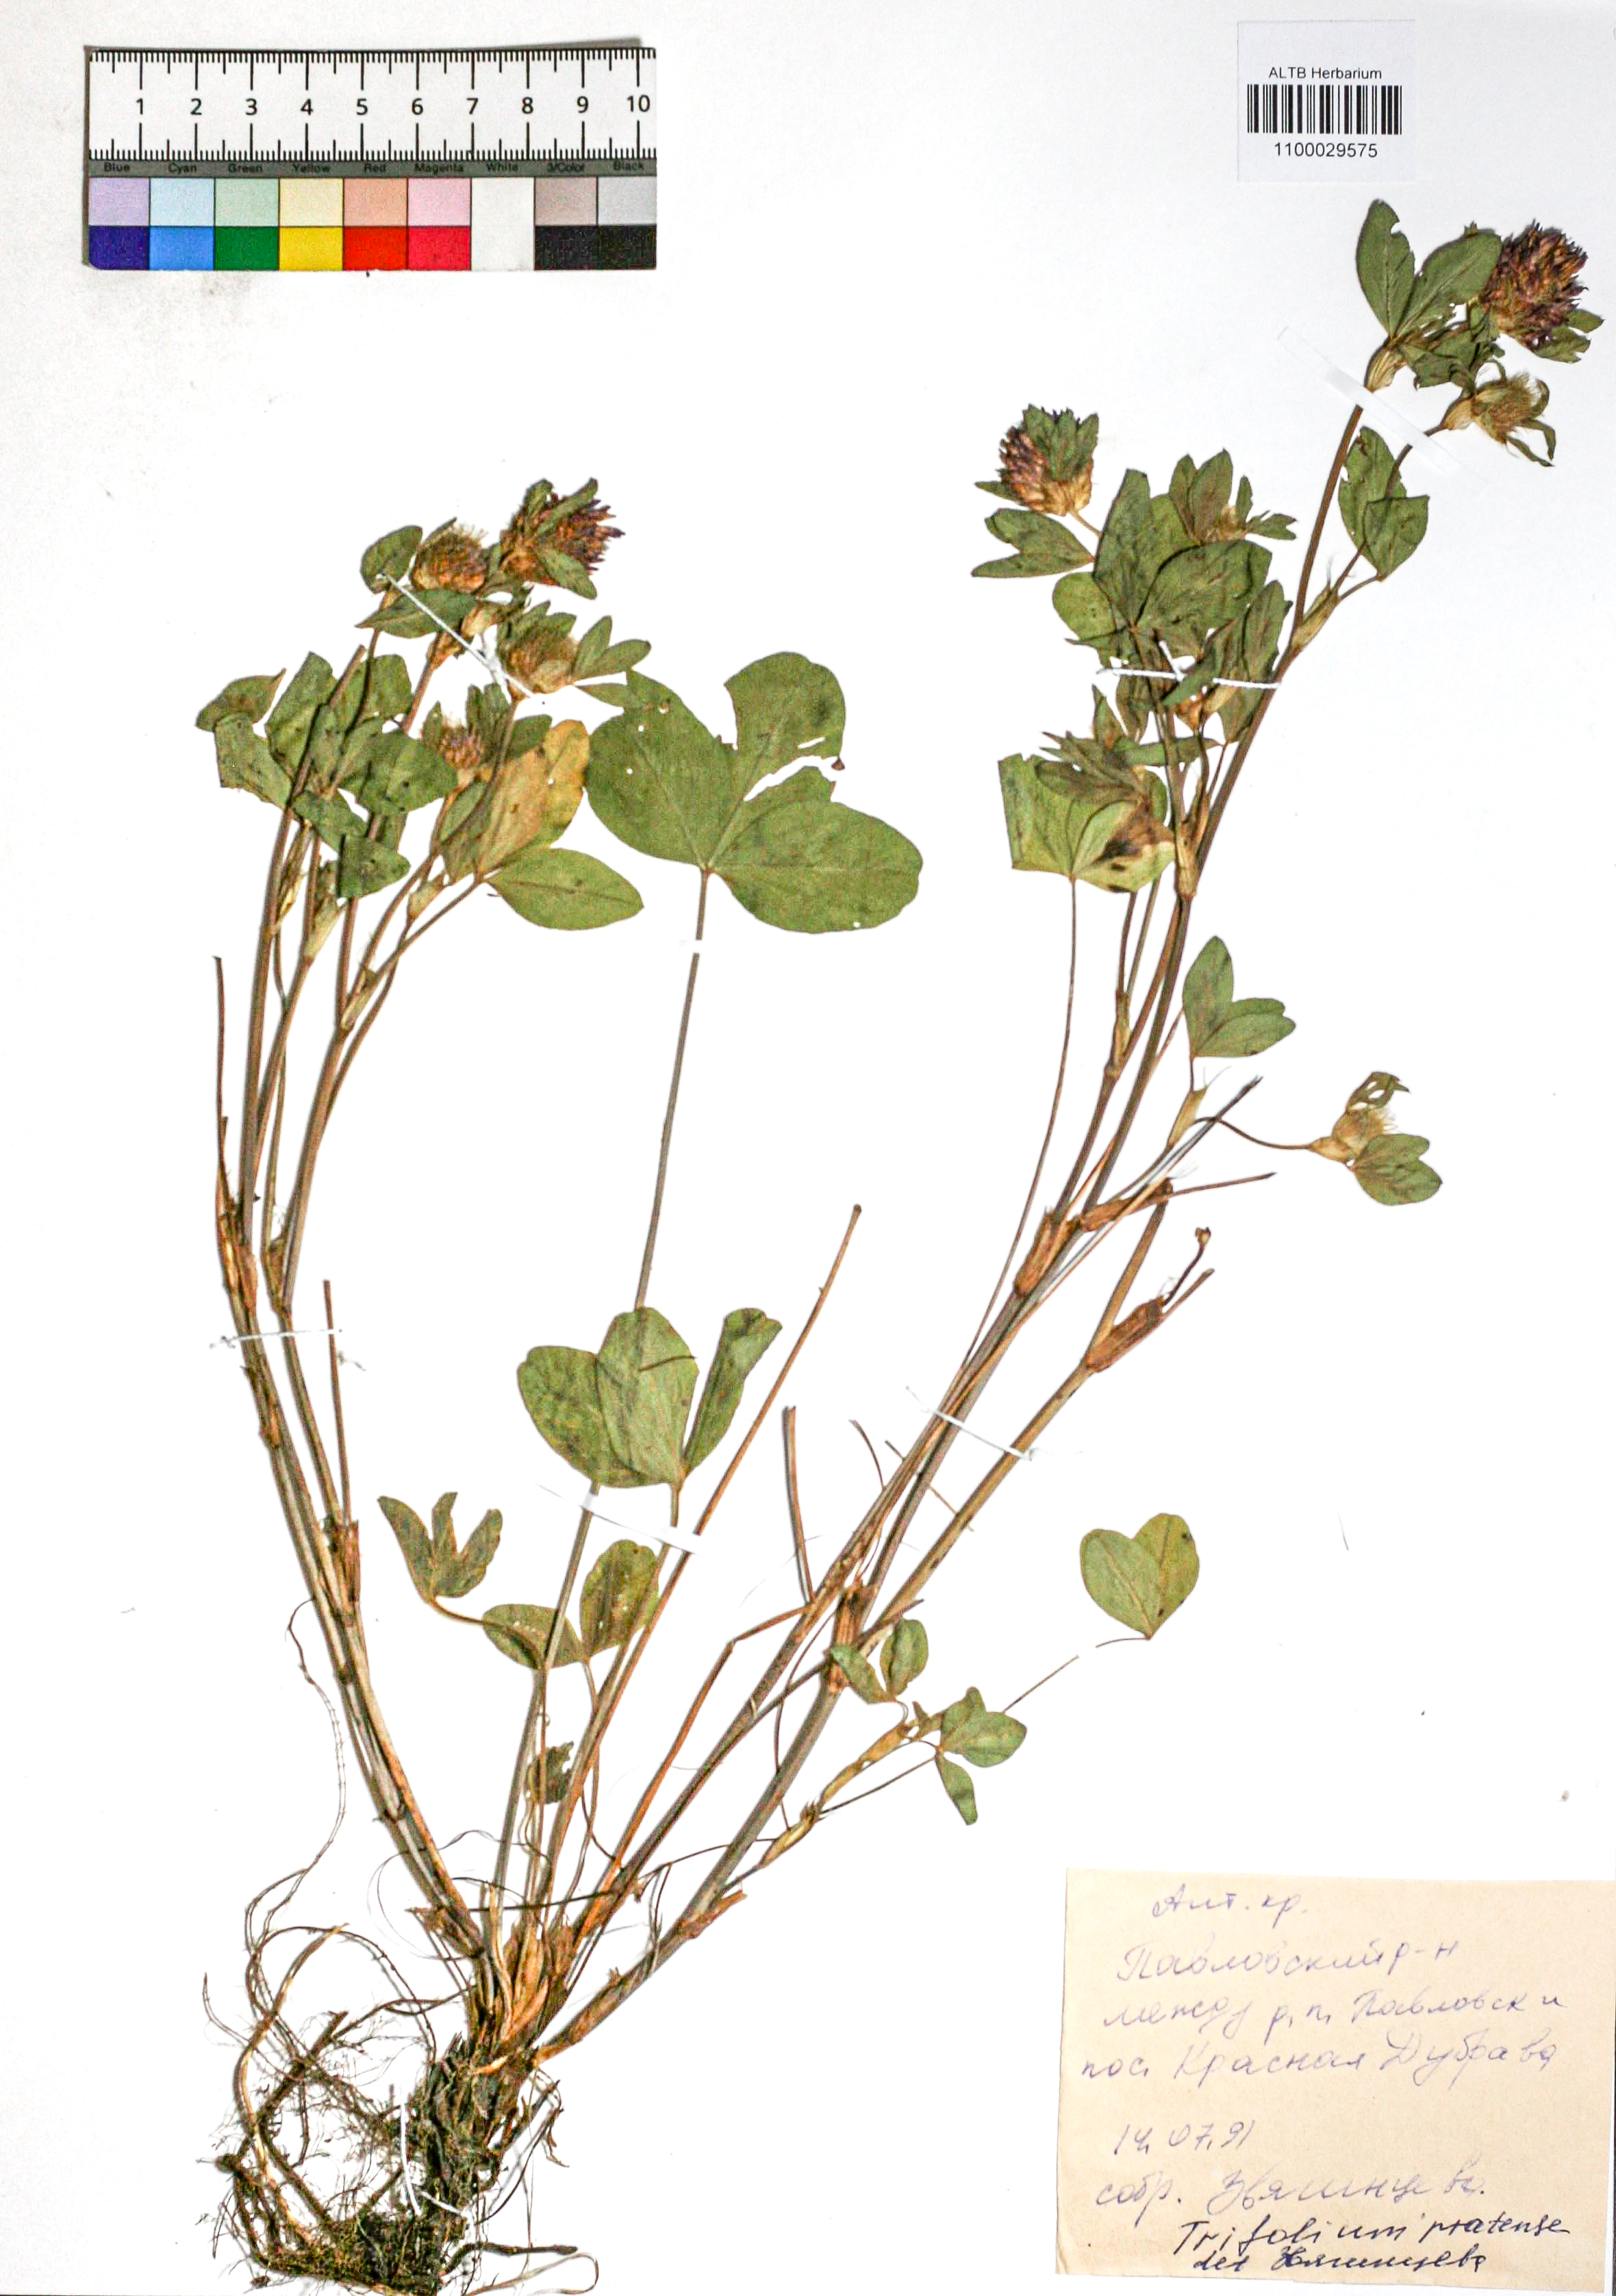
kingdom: Plantae
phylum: Tracheophyta
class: Magnoliopsida
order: Fabales
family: Fabaceae
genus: Trifolium
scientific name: Trifolium pratense
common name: Red clover
